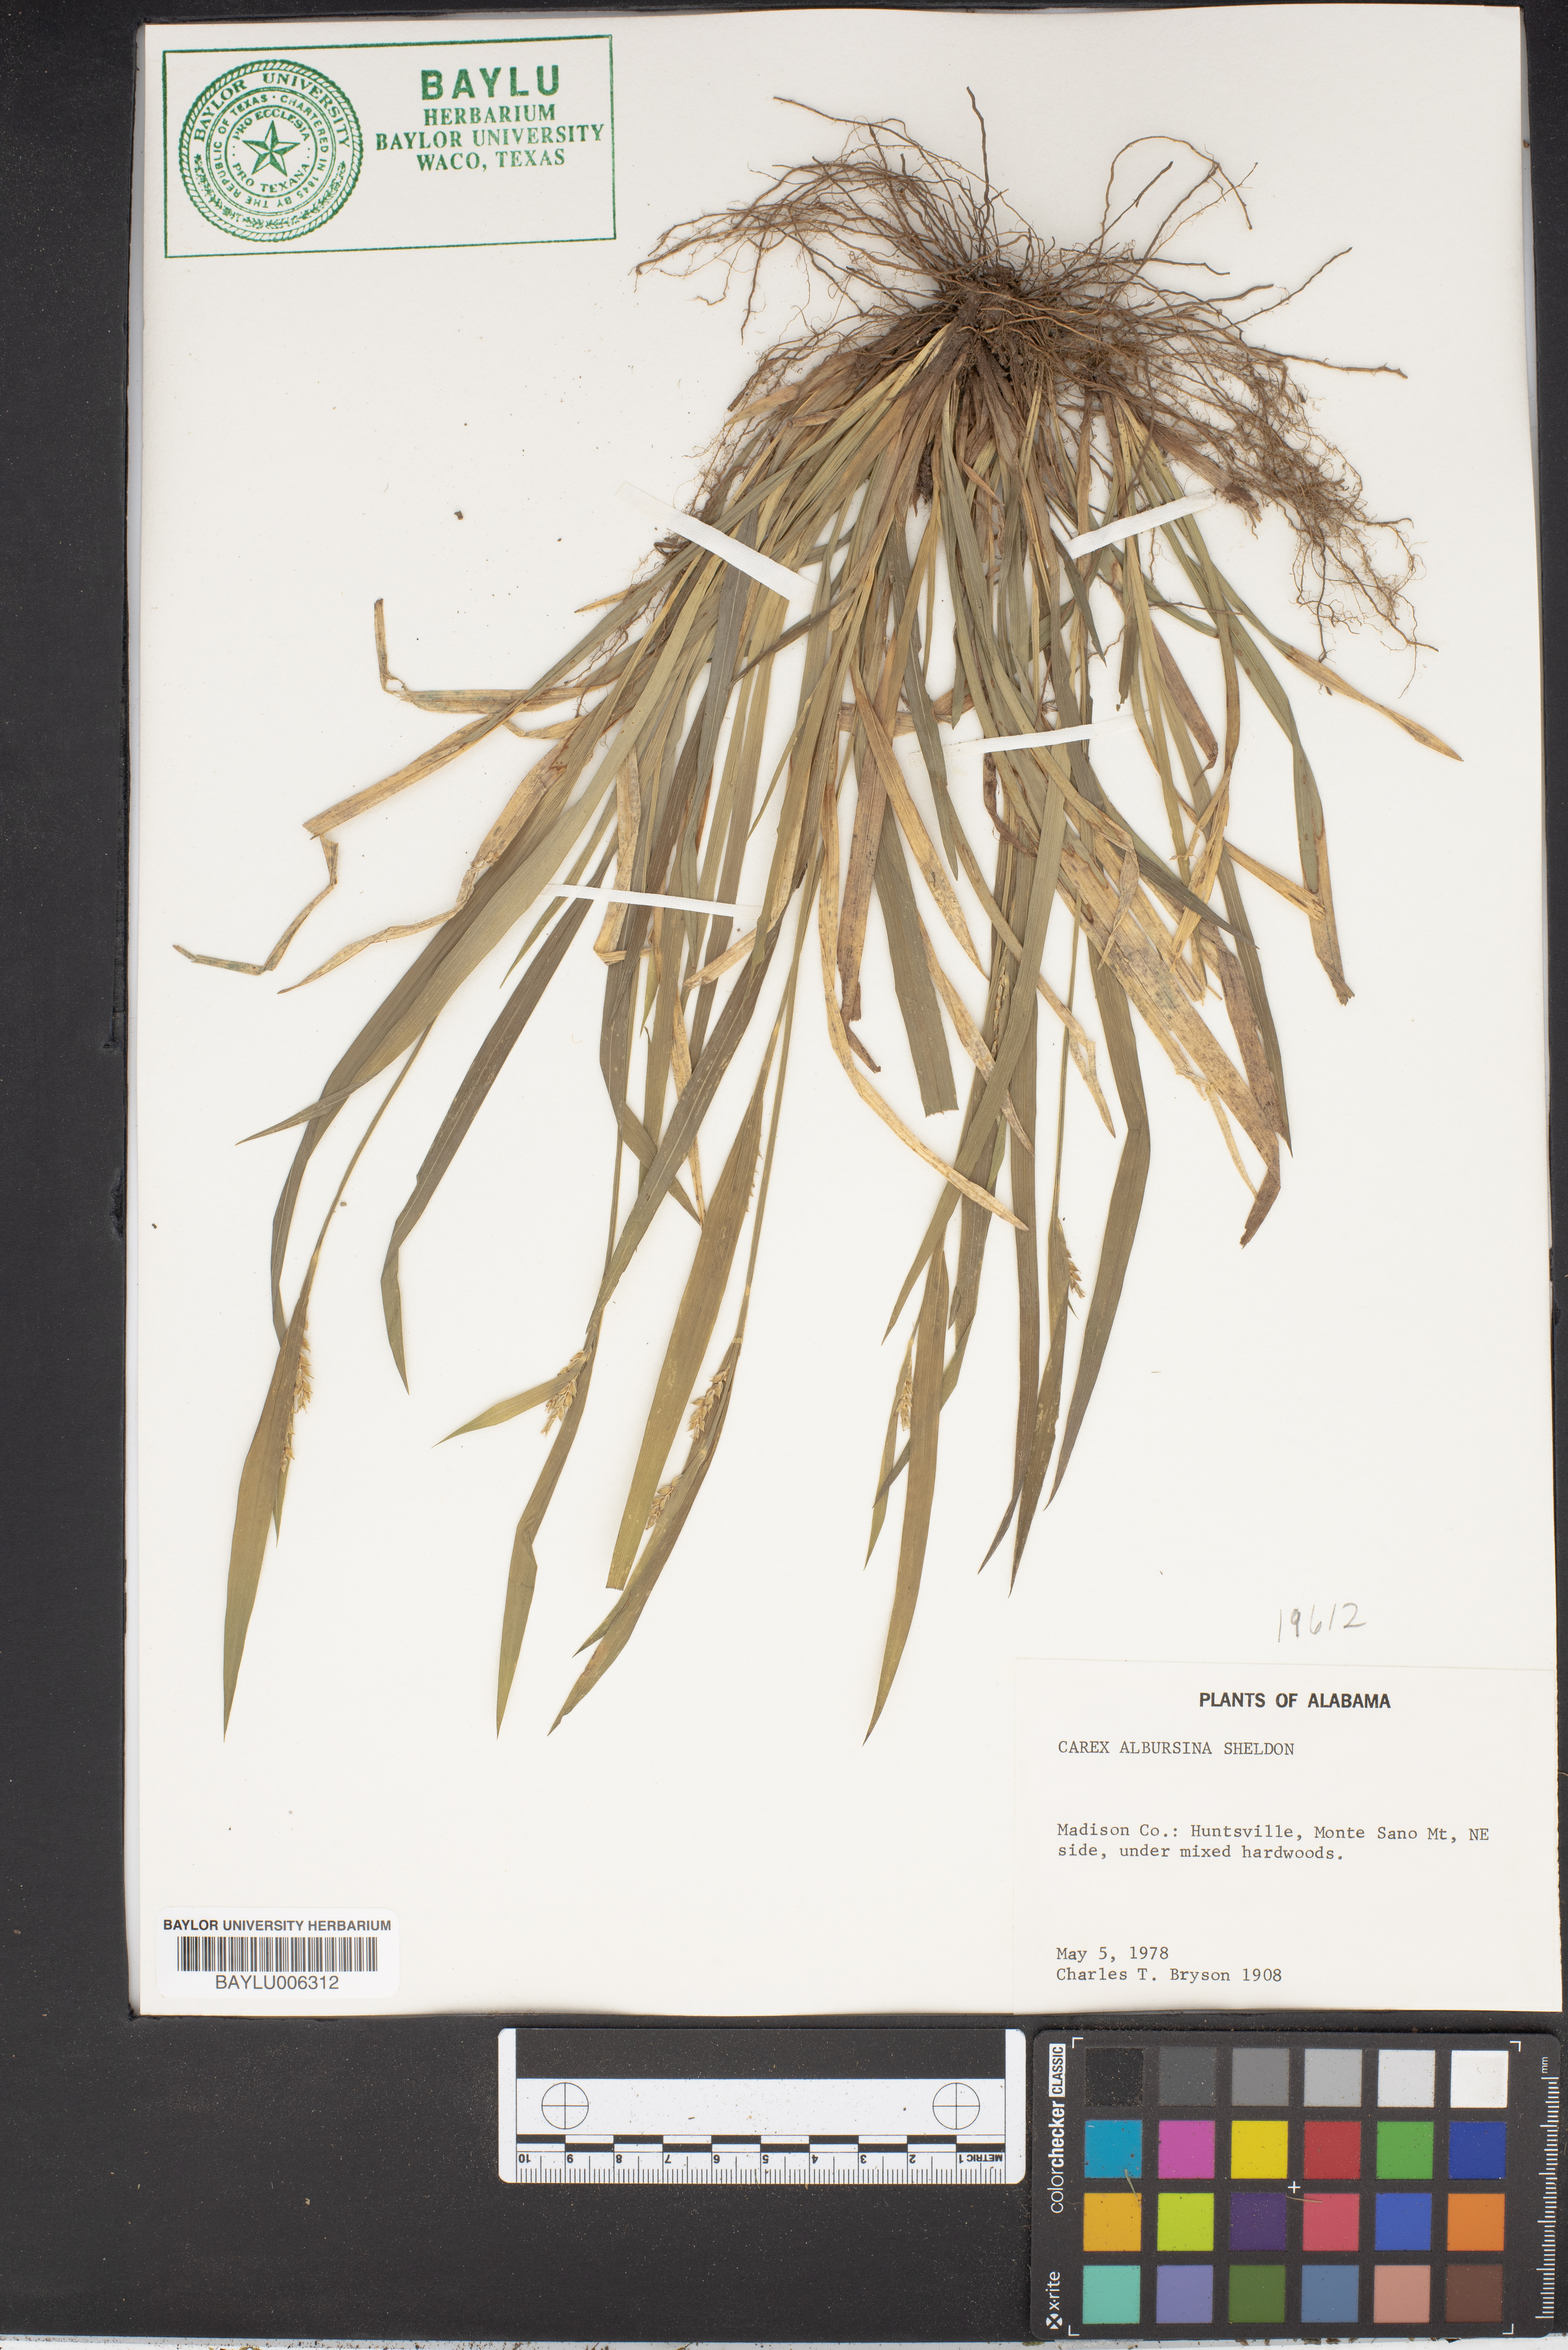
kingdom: Plantae
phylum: Tracheophyta
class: Liliopsida
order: Poales
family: Cyperaceae
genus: Carex
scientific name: Carex albursina
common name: Blunt-scale wood sedge
